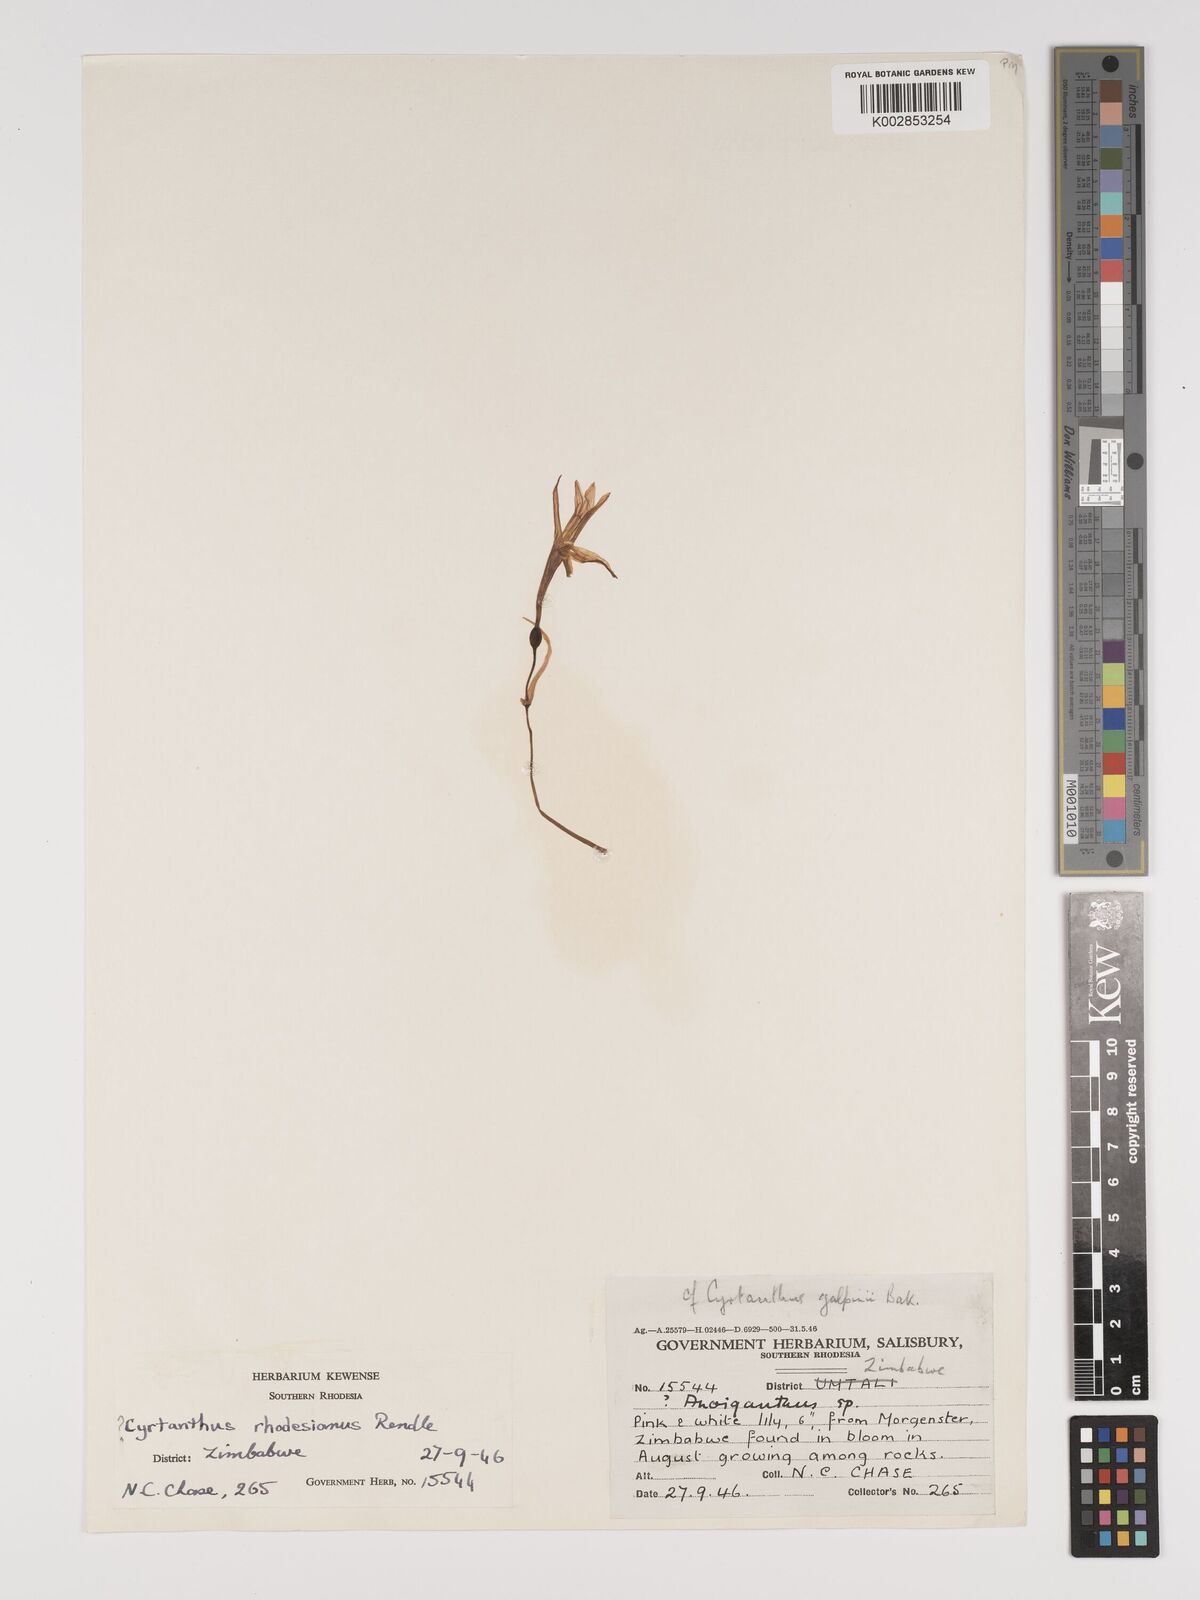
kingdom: Plantae
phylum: Tracheophyta
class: Liliopsida
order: Asparagales
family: Amaryllidaceae
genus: Cyrtanthus
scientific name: Cyrtanthus galpinii
